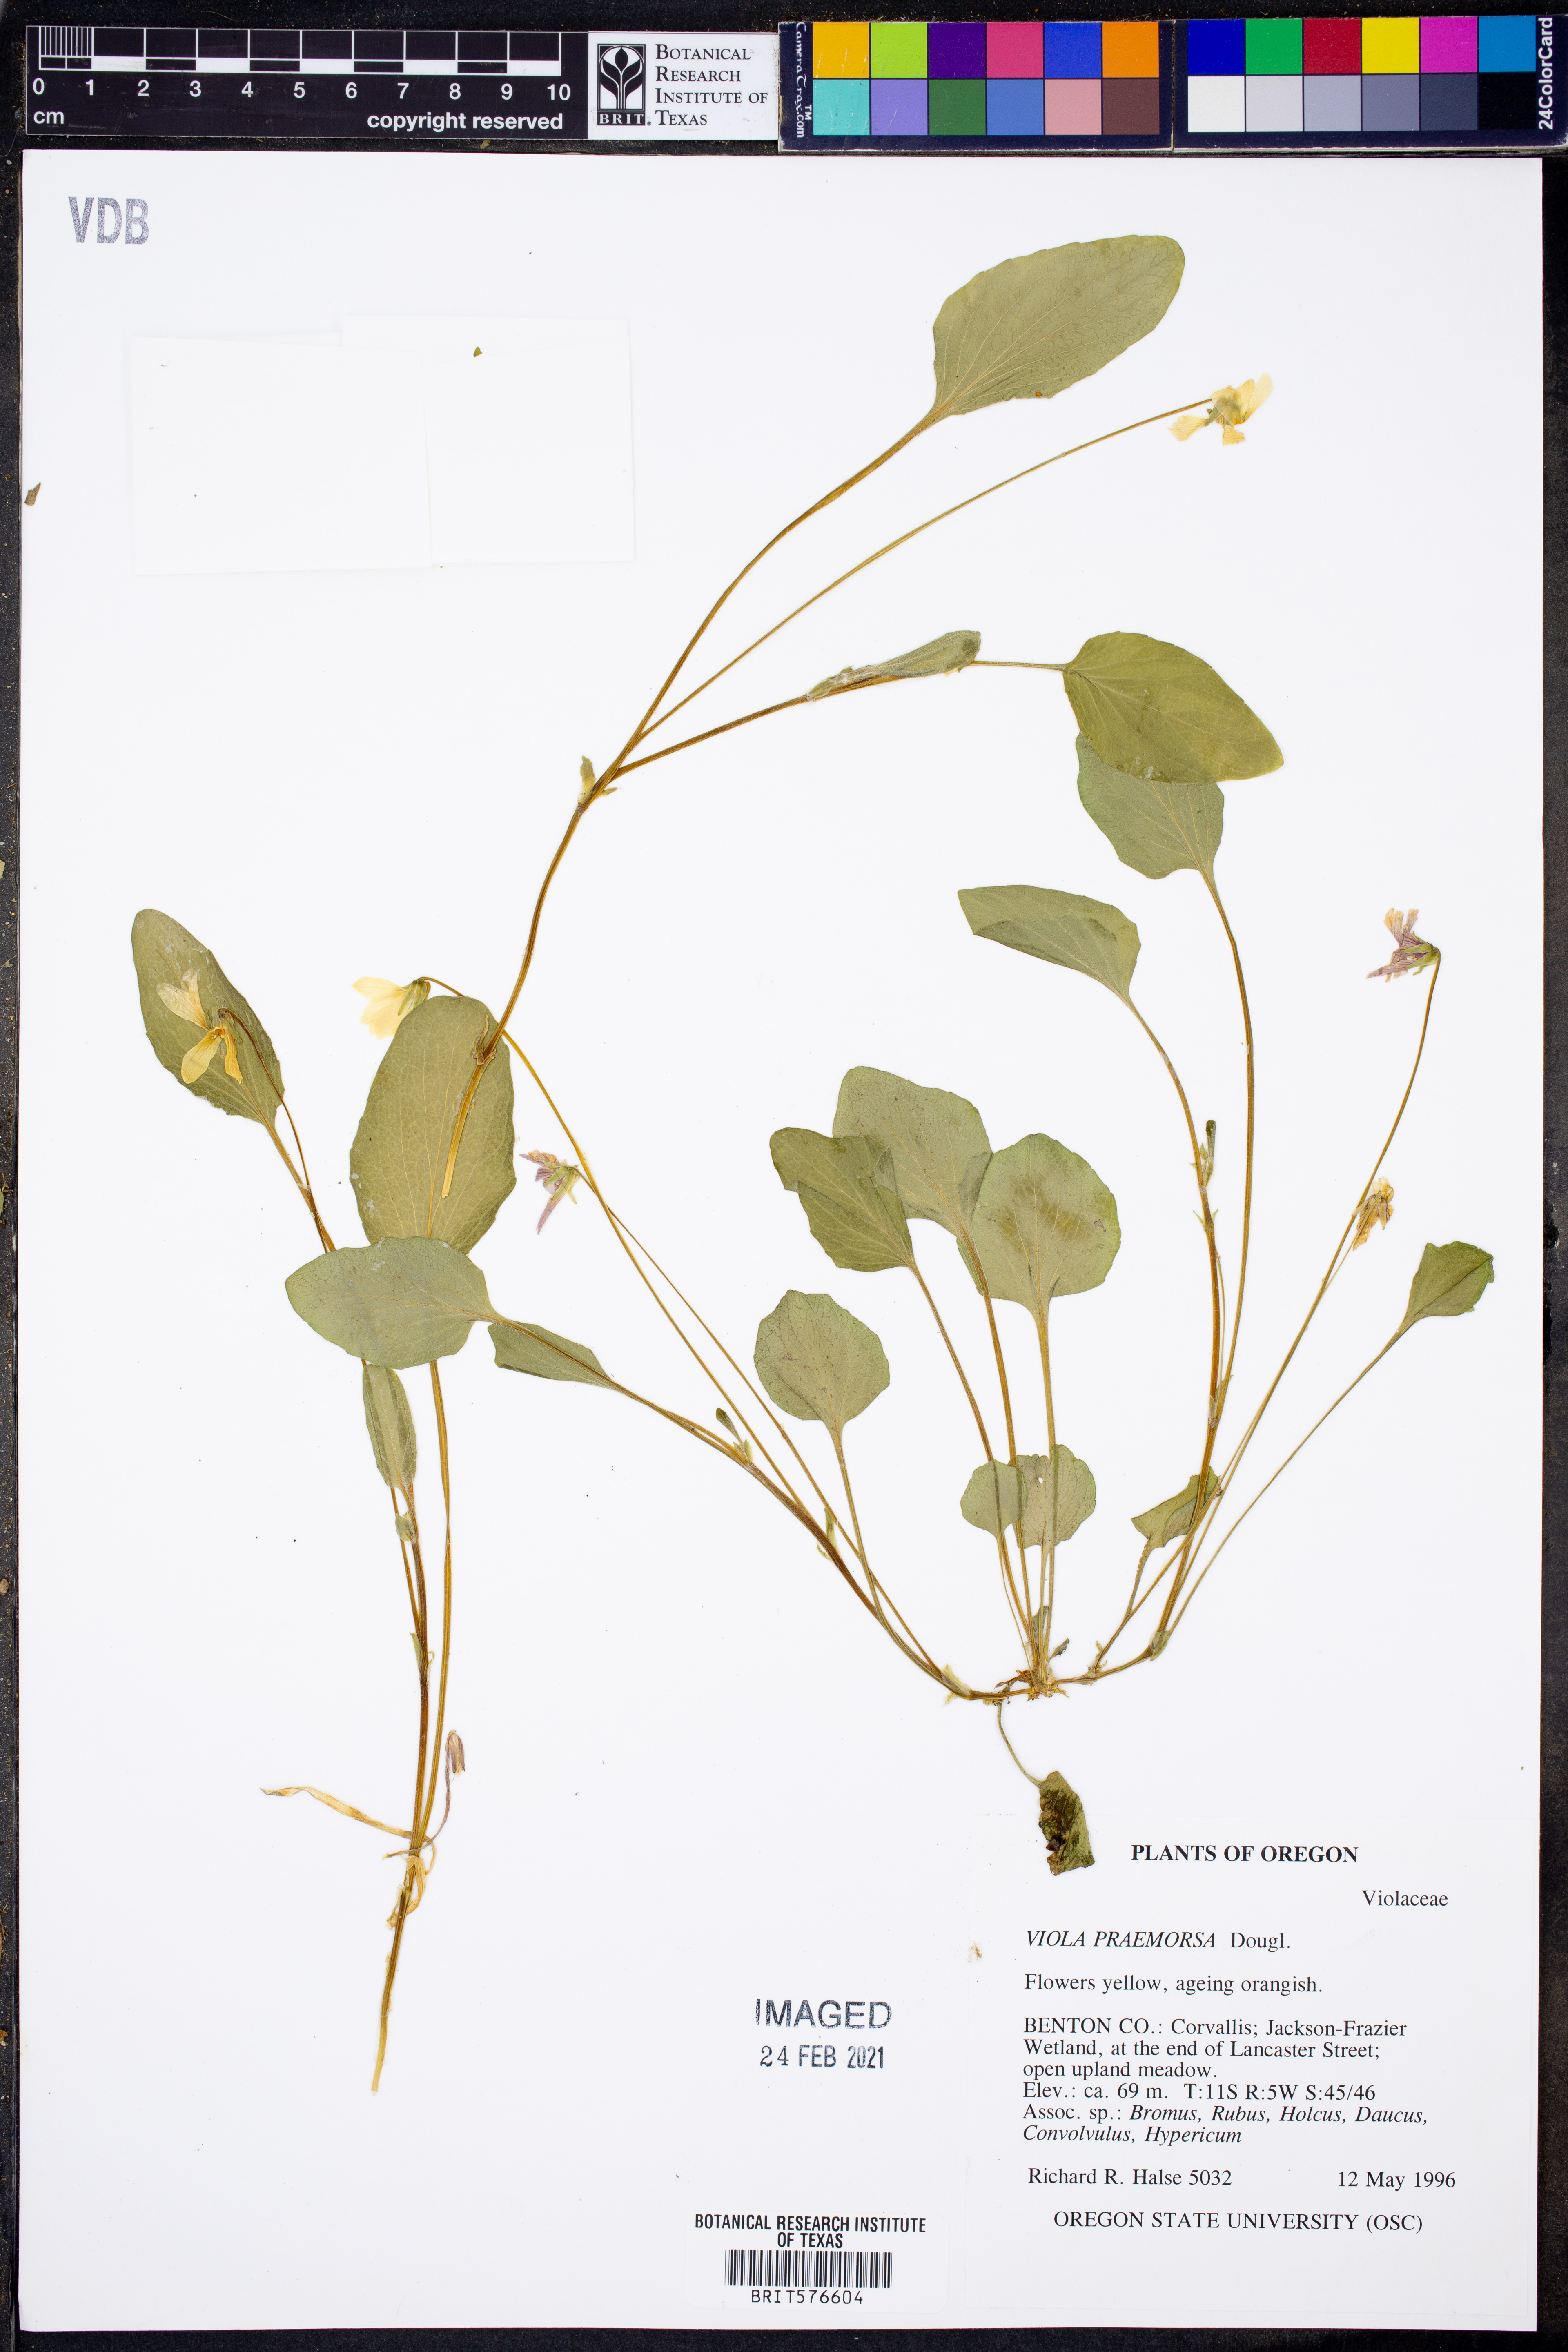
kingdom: Plantae
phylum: Tracheophyta
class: Magnoliopsida
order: Malpighiales
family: Violaceae
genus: Viola
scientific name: Viola praemorsa
